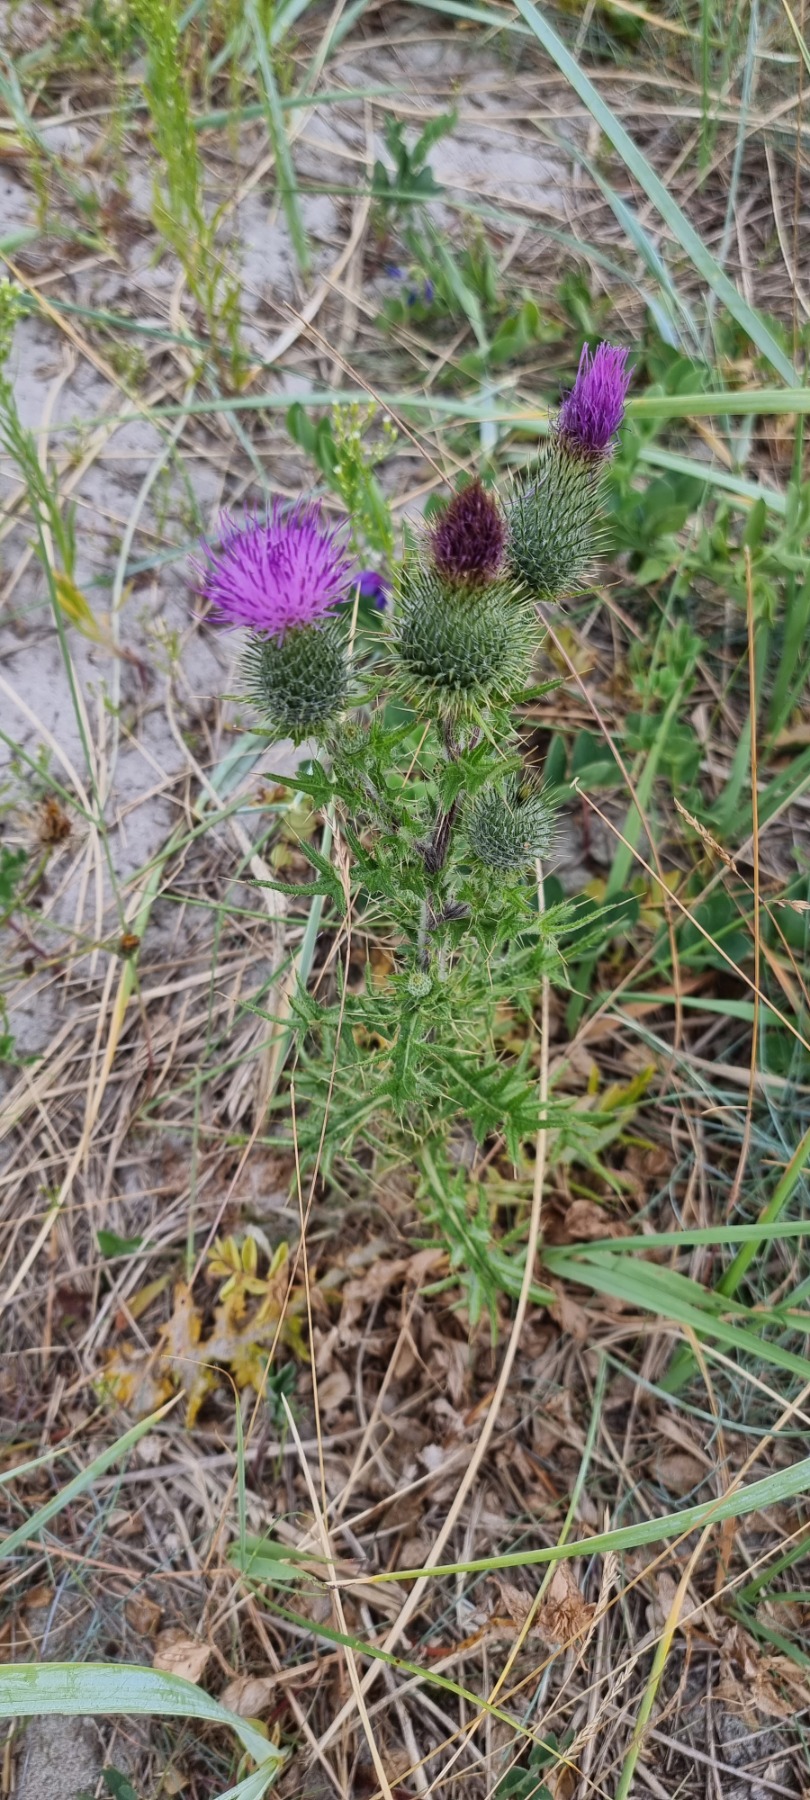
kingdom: Plantae
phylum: Tracheophyta
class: Magnoliopsida
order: Asterales
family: Asteraceae
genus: Cirsium
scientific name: Cirsium vulgare
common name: Horse-tidsel
